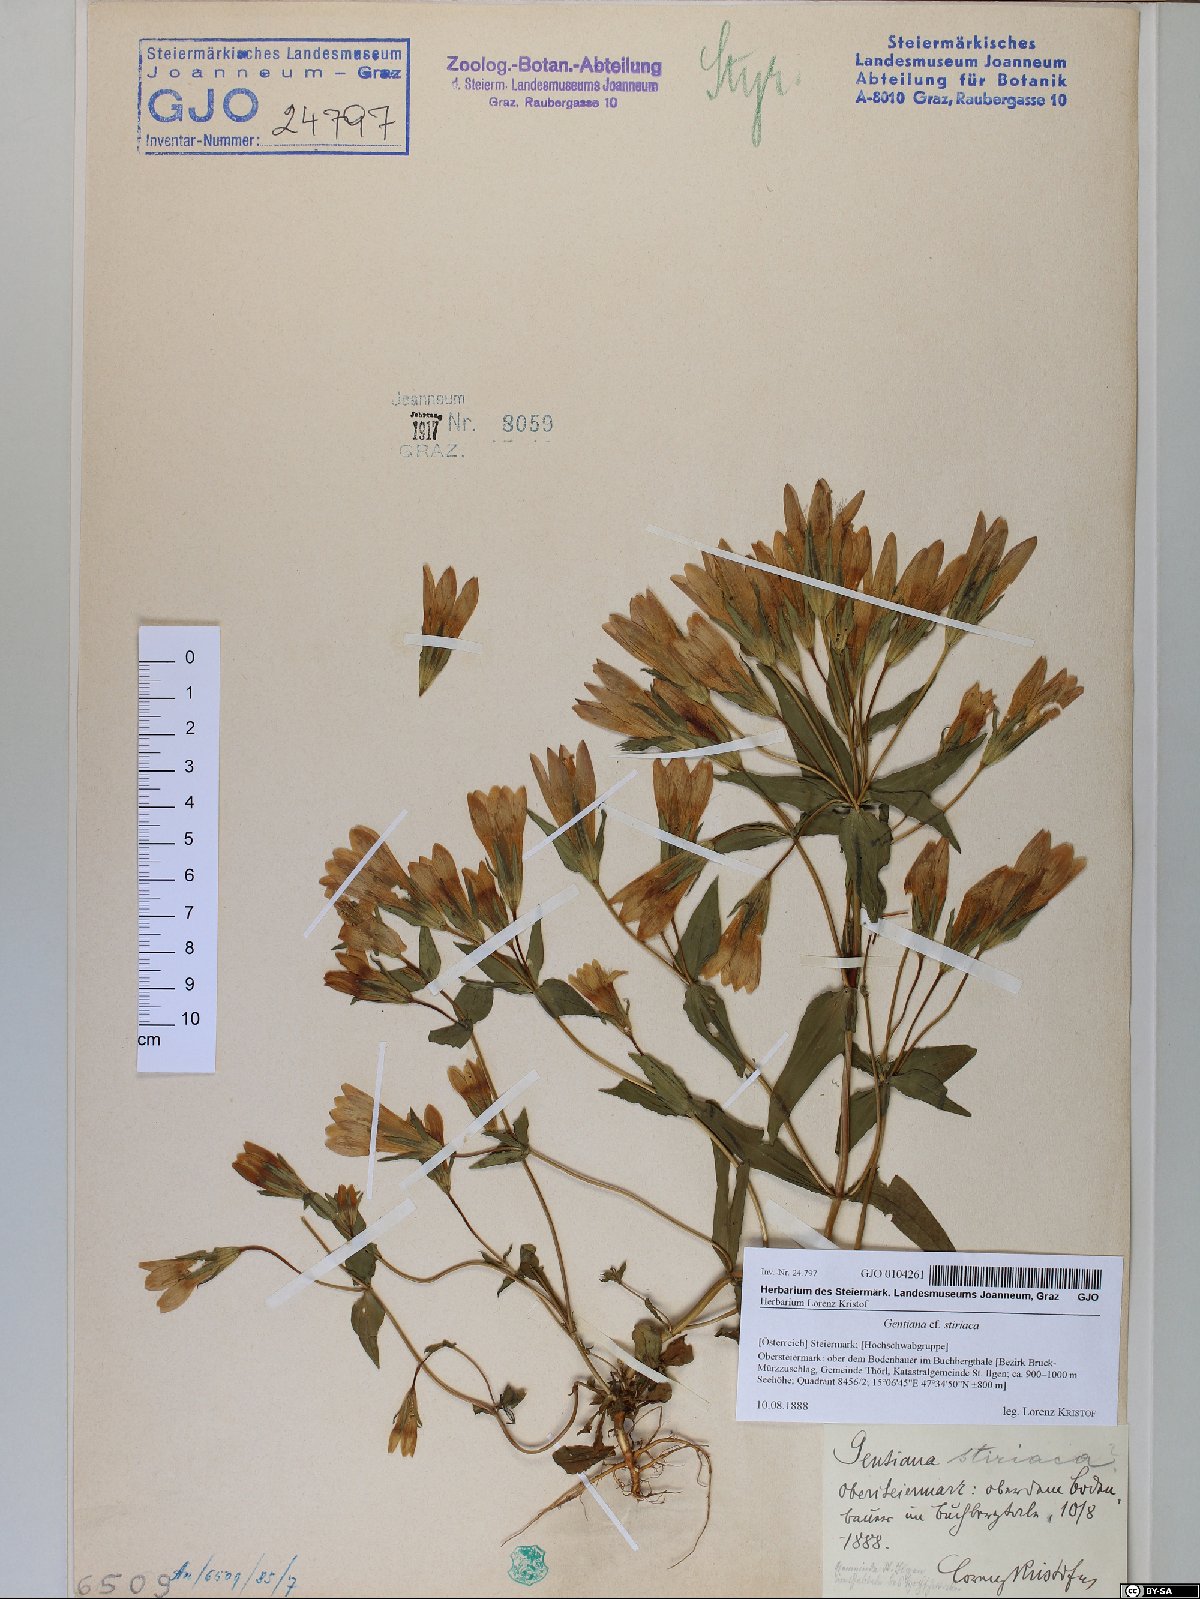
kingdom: Plantae
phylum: Tracheophyta
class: Magnoliopsida
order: Gentianales
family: Gentianaceae
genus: Gentianella
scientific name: Gentianella rhaetica
